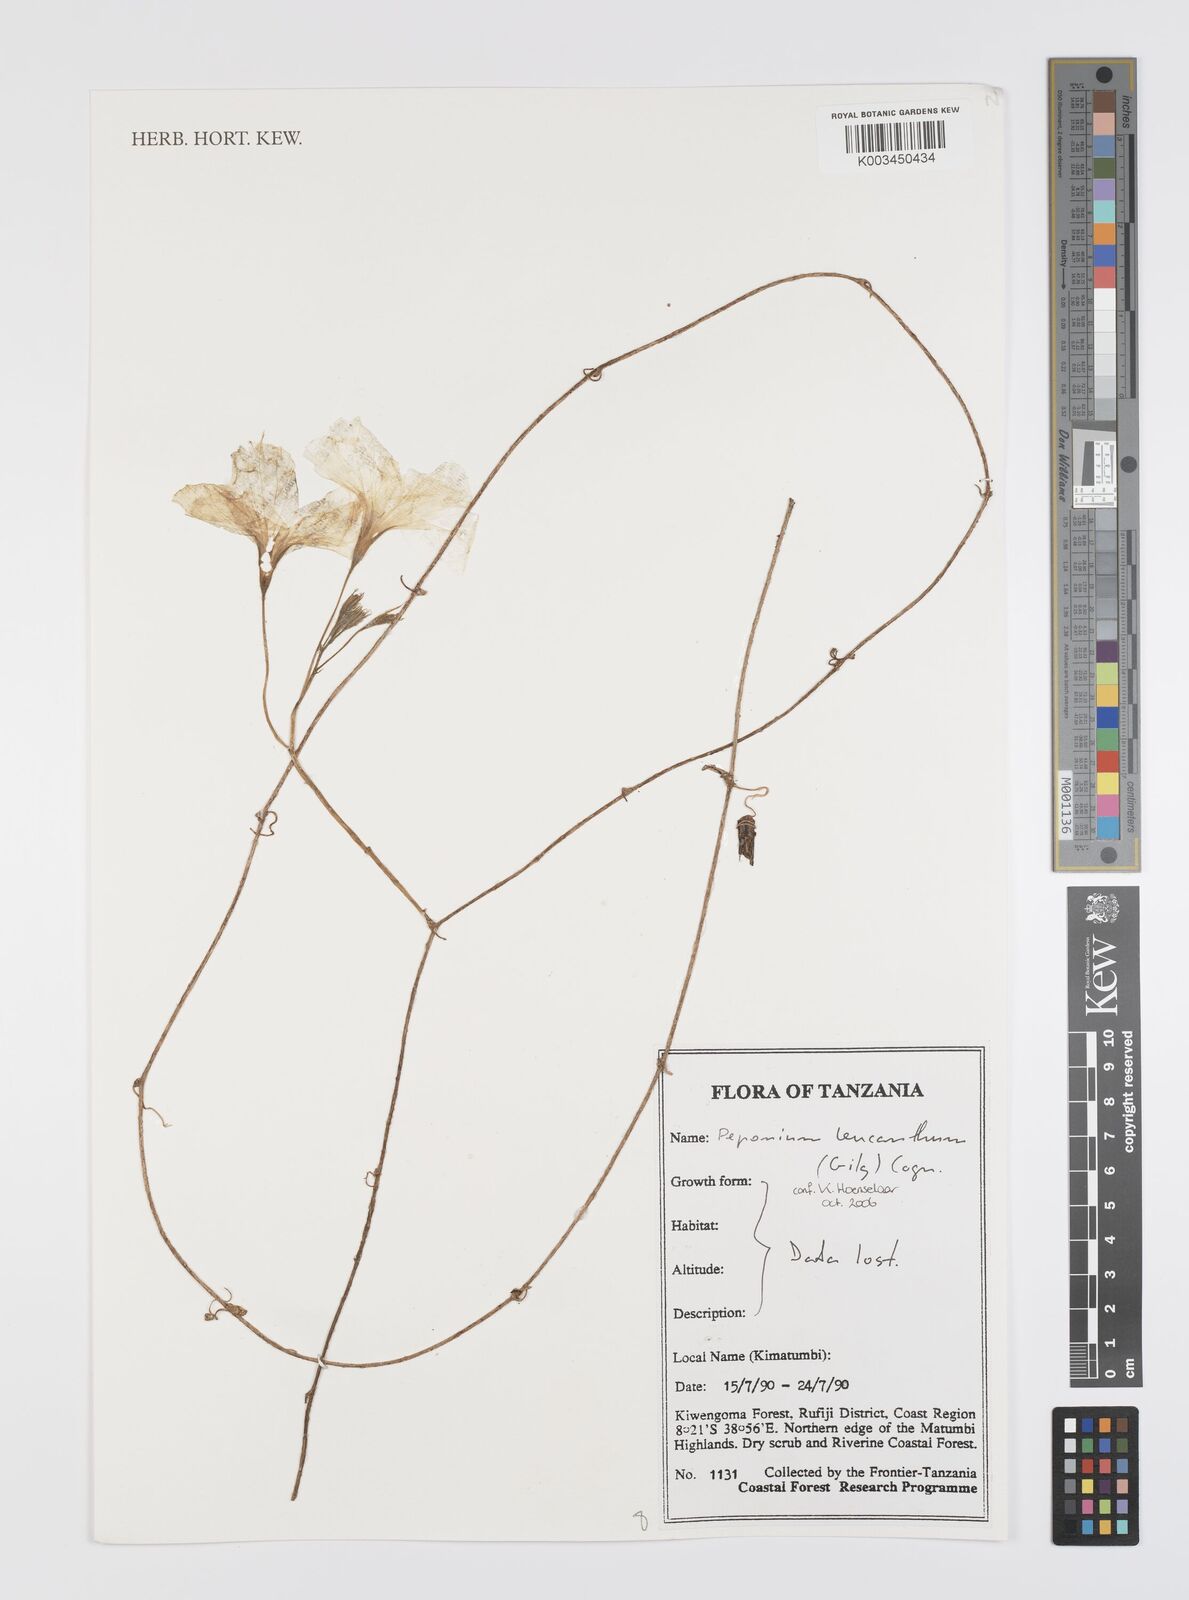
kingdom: Plantae
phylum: Tracheophyta
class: Magnoliopsida
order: Cucurbitales
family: Cucurbitaceae
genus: Peponium
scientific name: Peponium leucanthum
